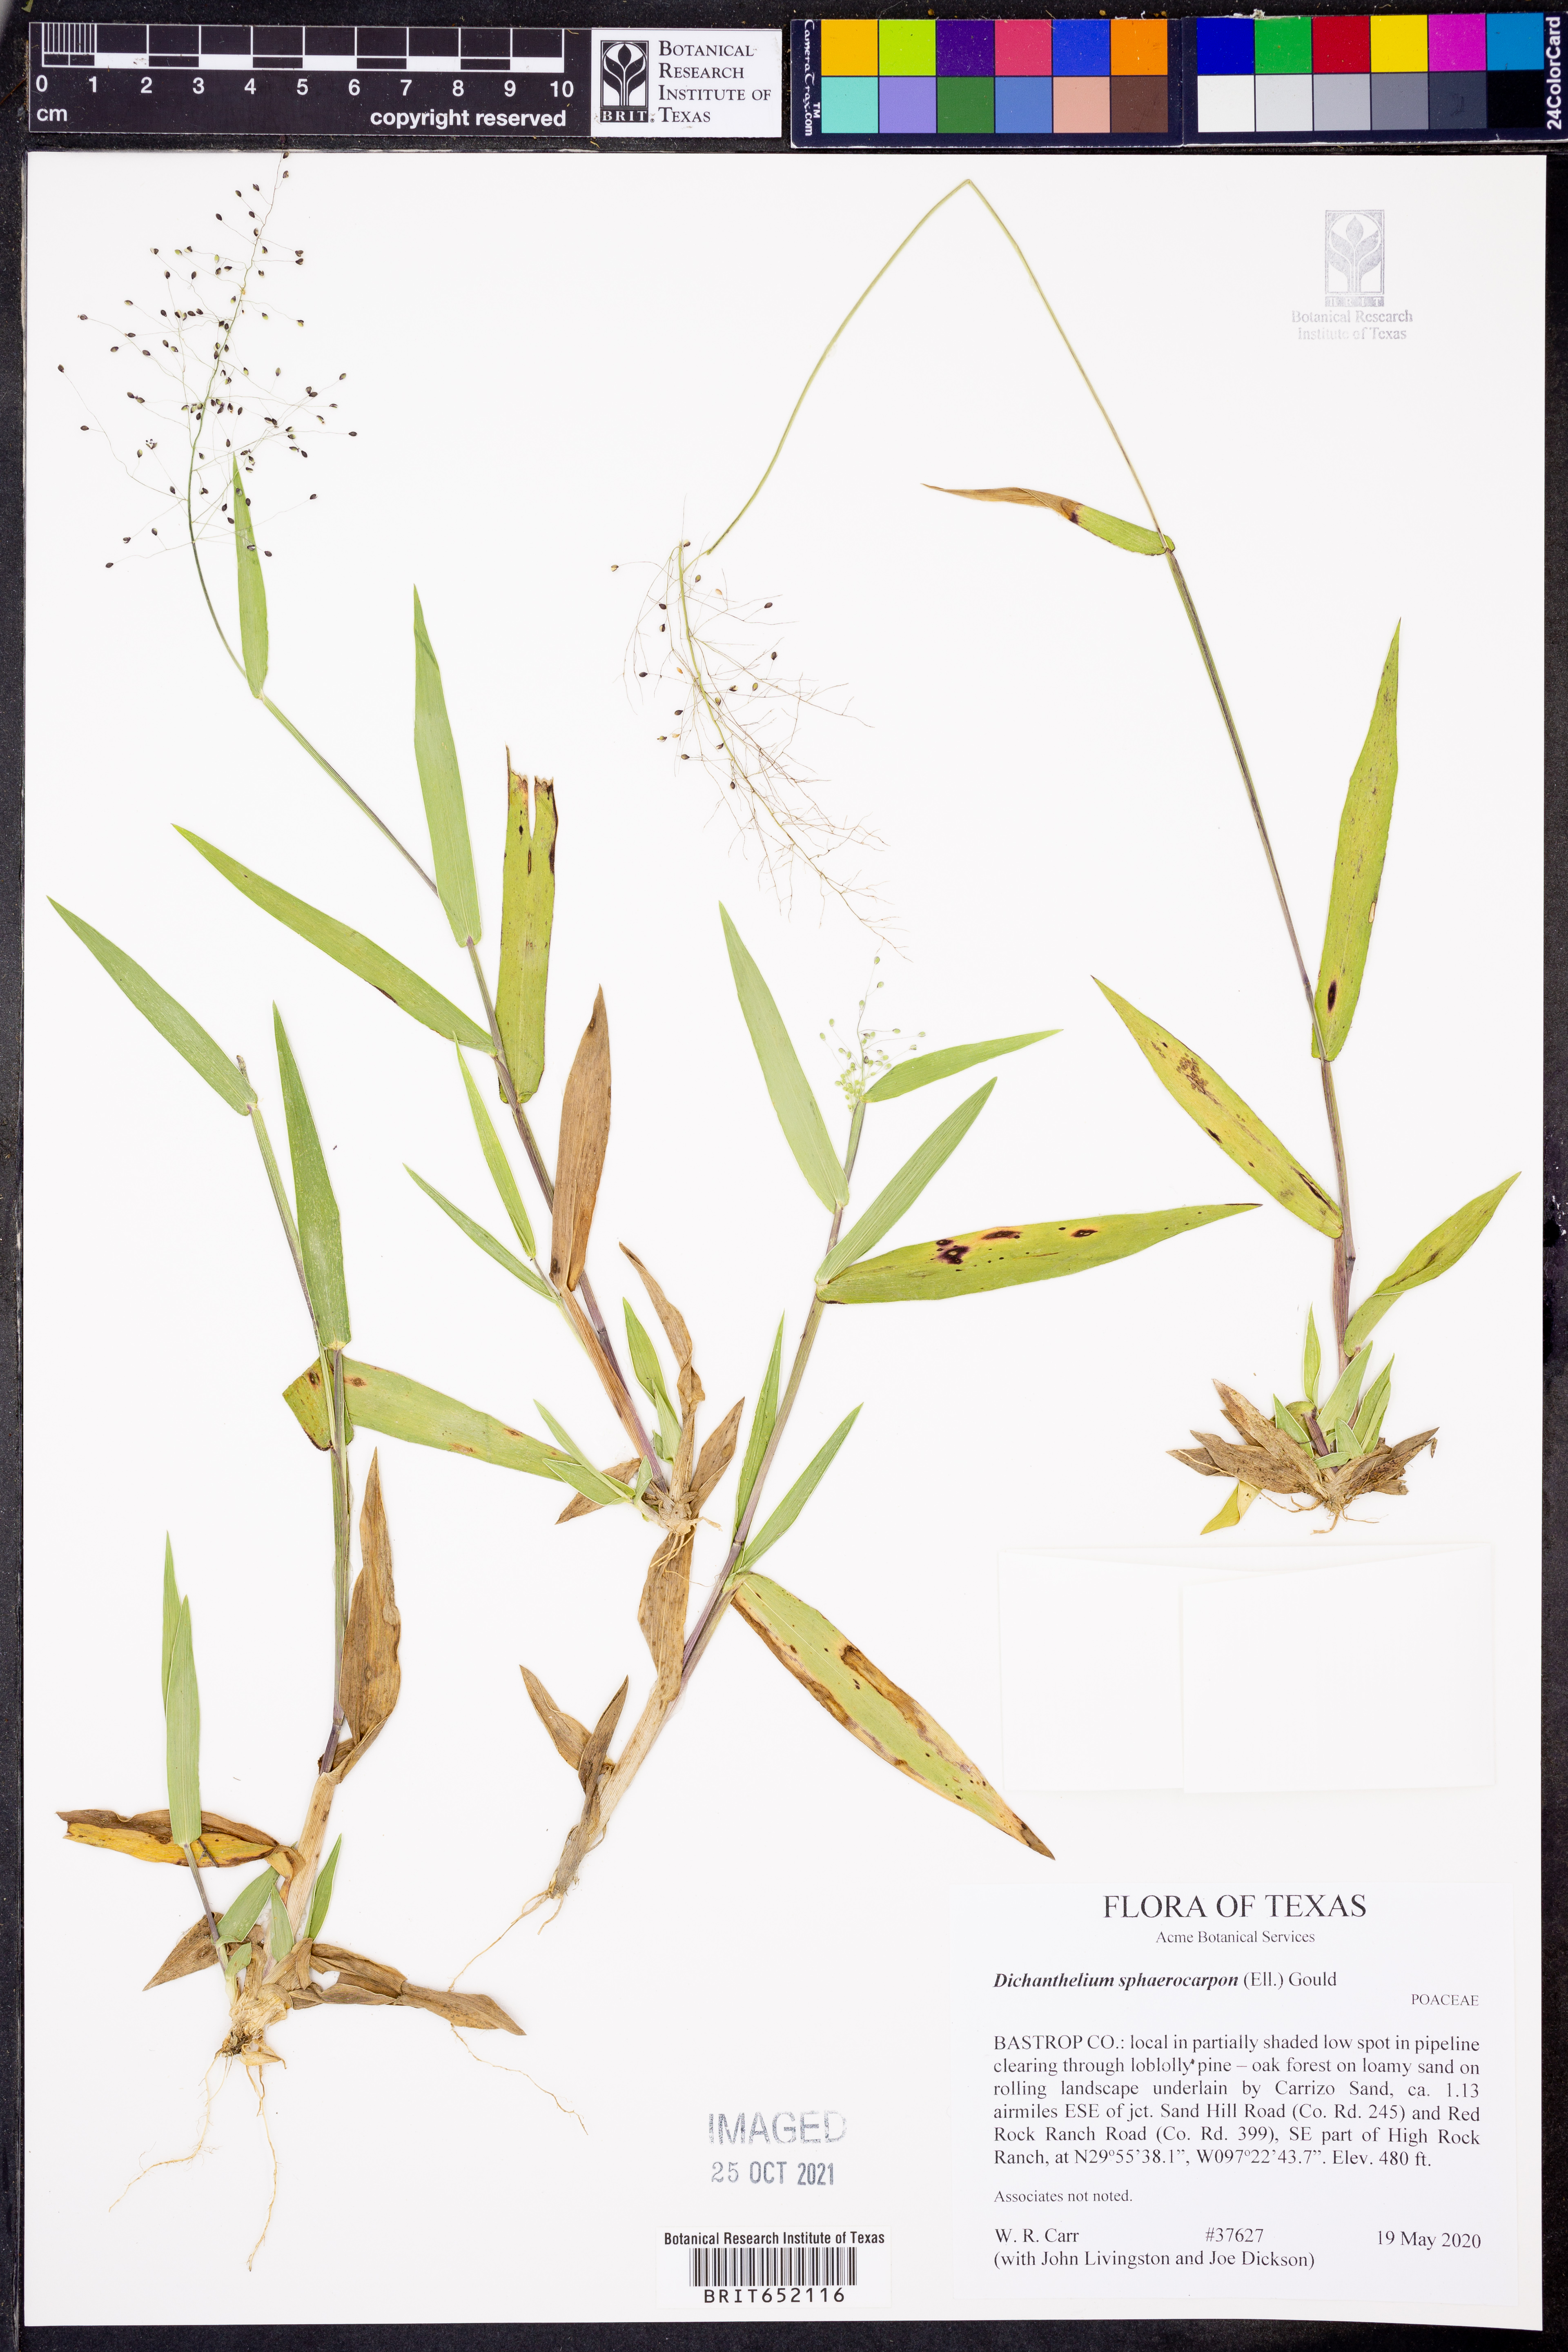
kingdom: Plantae
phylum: Tracheophyta
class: Liliopsida
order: Poales
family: Poaceae
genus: Dichanthelium
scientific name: Dichanthelium sphaerocarpon
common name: Round-fruited panicgrass
